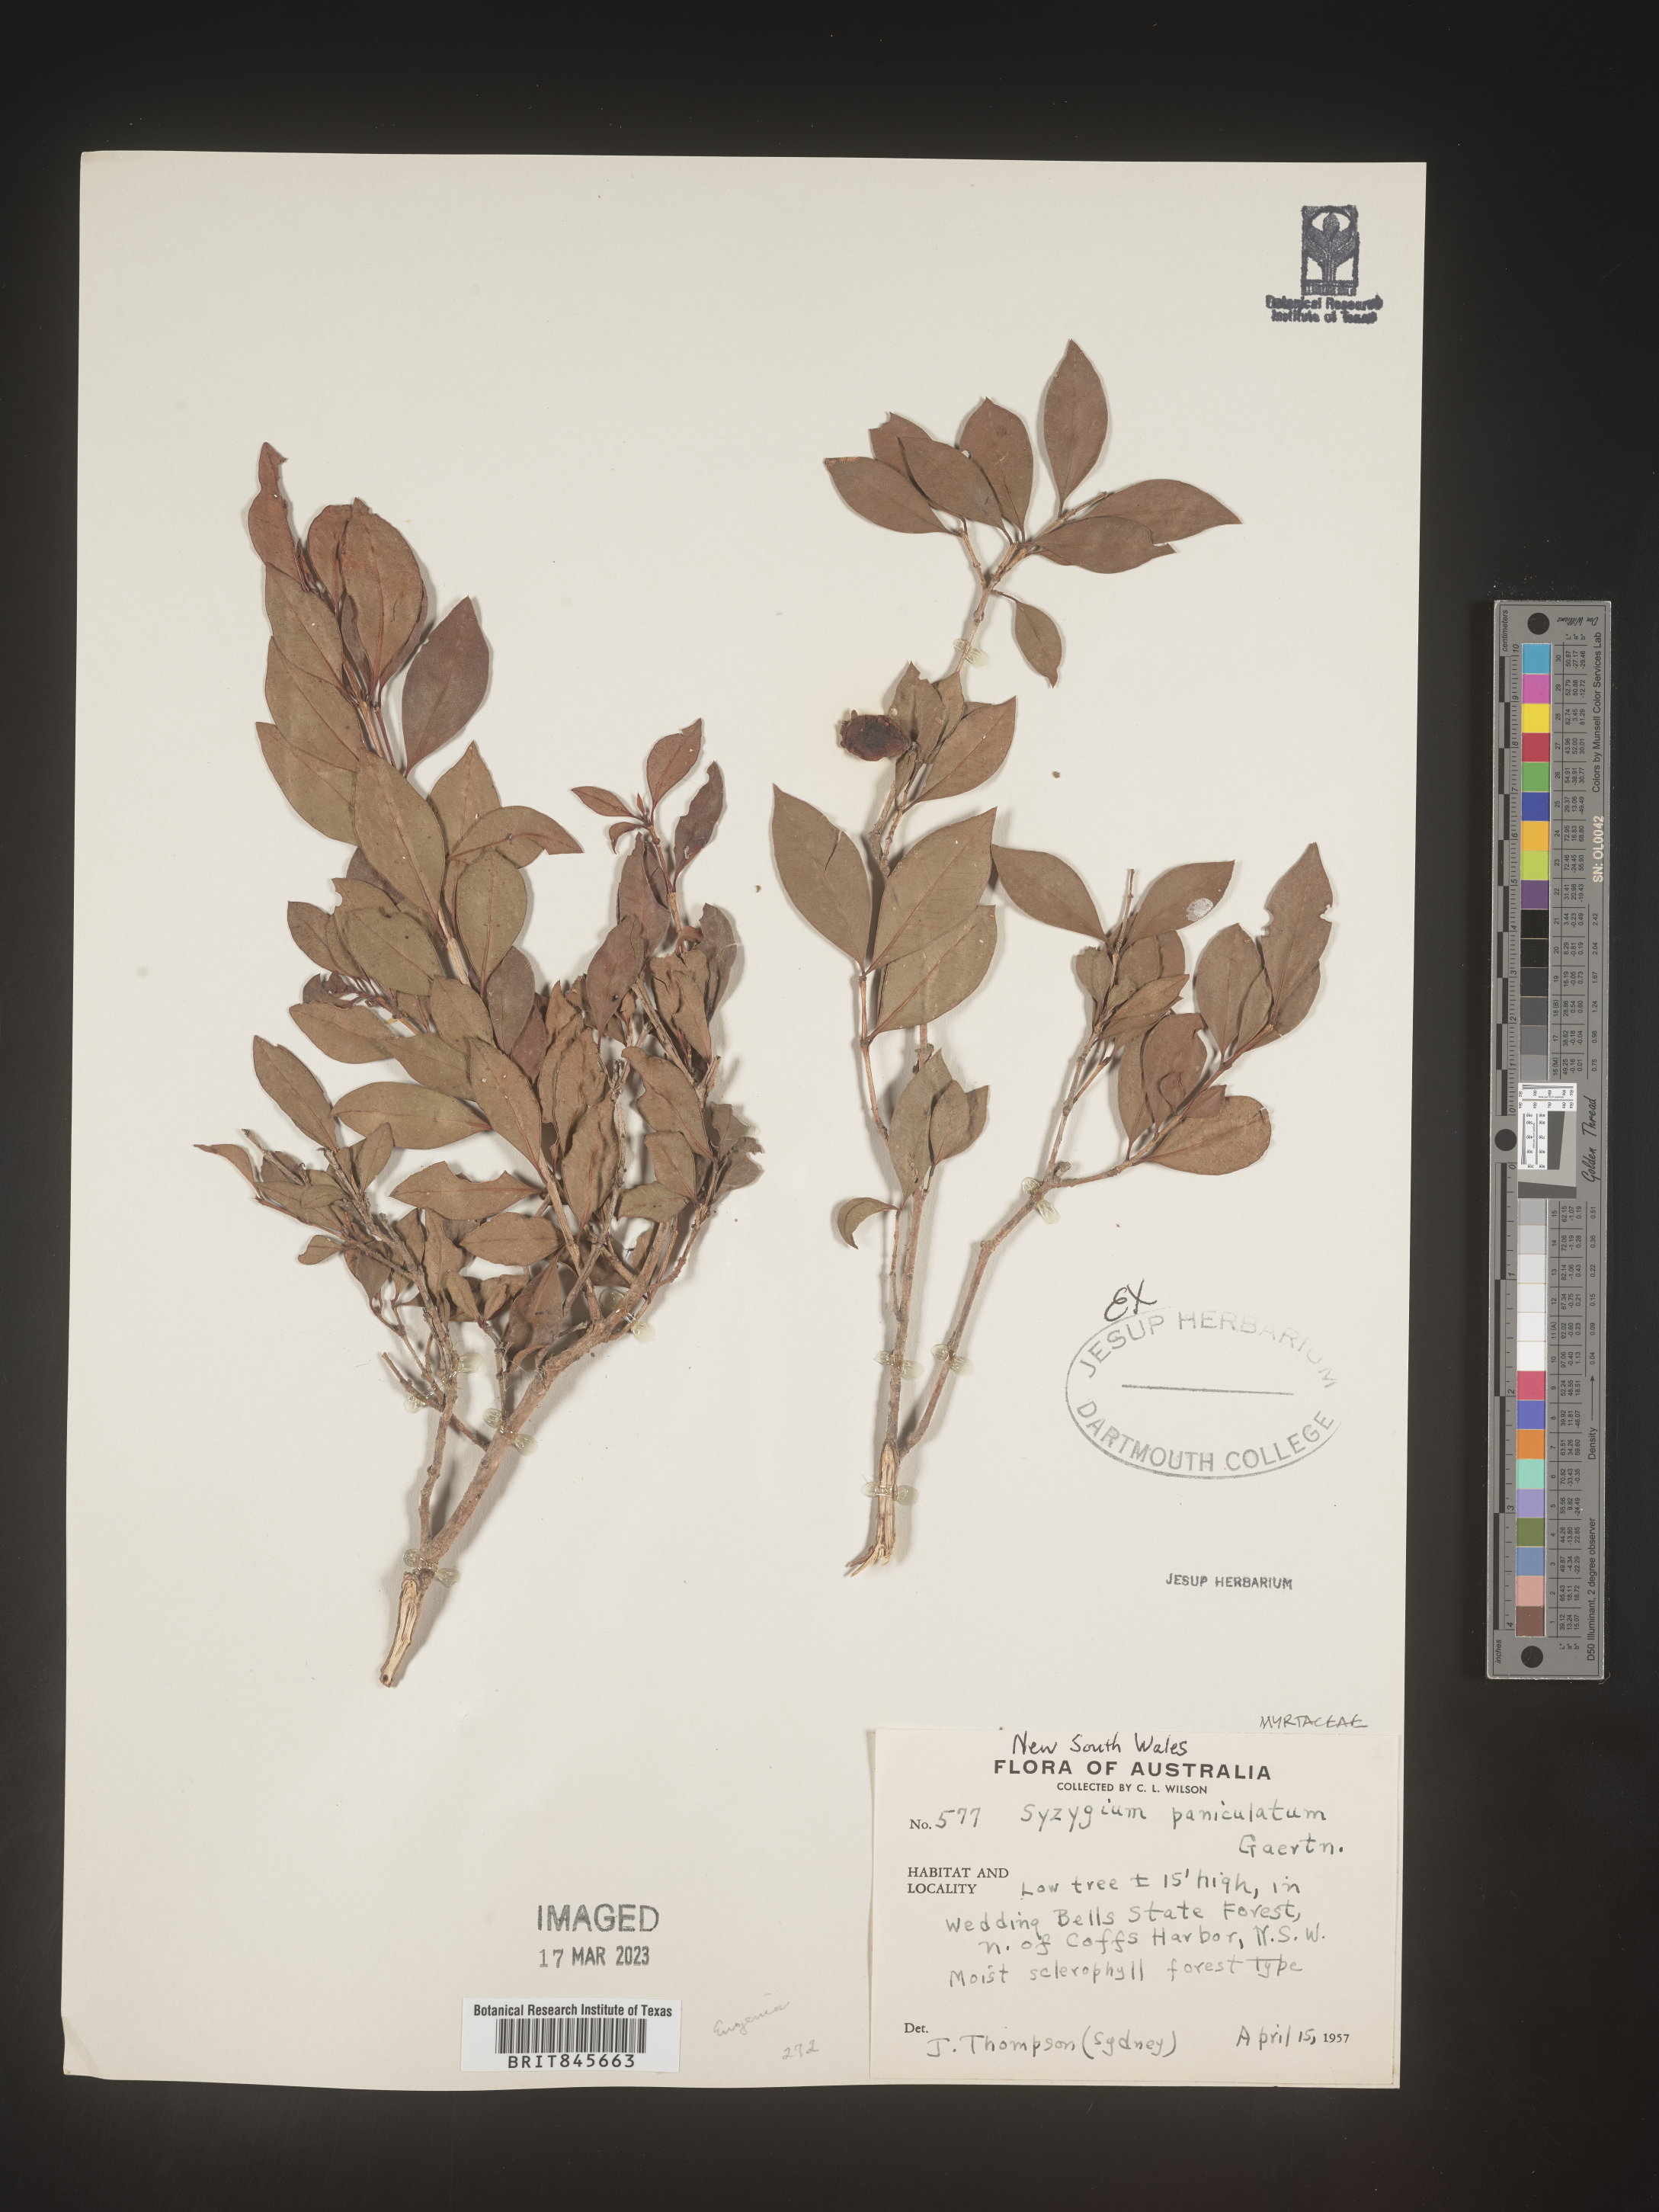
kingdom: Plantae
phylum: Tracheophyta
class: Magnoliopsida
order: Myrtales
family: Myrtaceae
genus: Syzygium
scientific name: Syzygium
